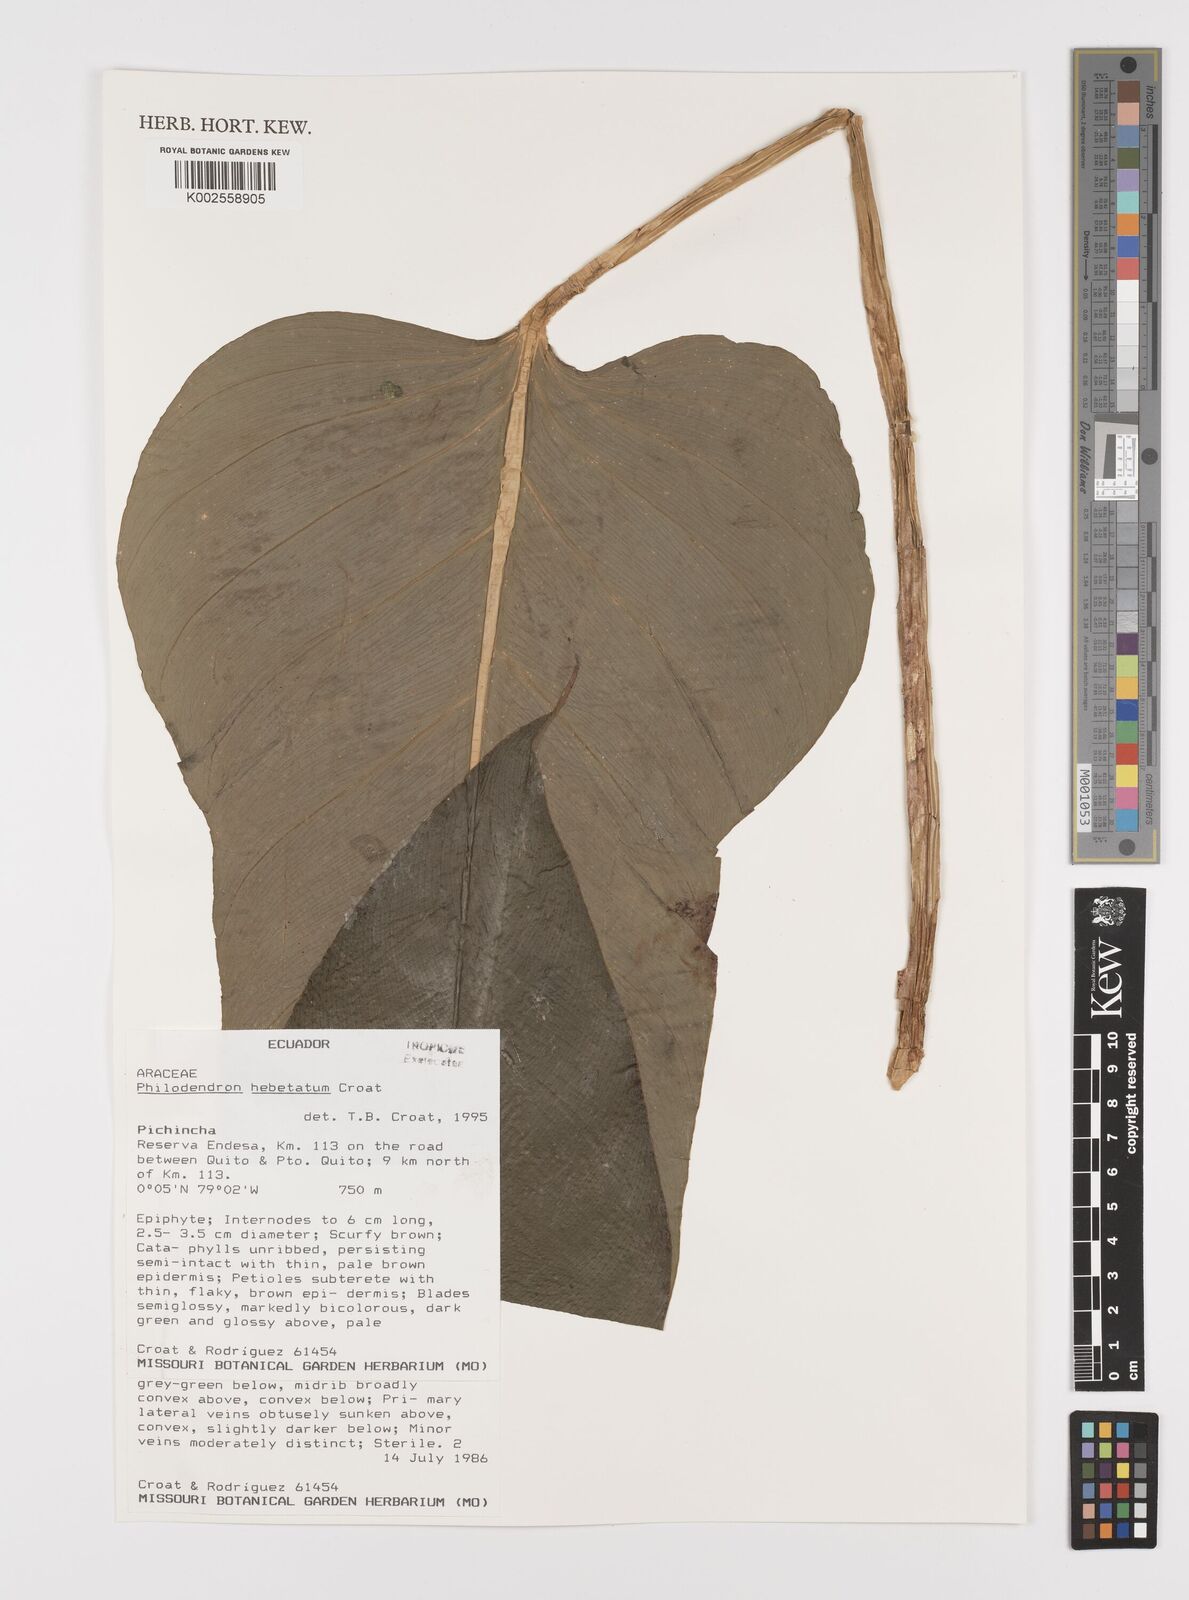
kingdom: Plantae
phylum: Tracheophyta
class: Liliopsida
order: Alismatales
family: Araceae
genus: Philodendron
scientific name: Philodendron hebetatum
